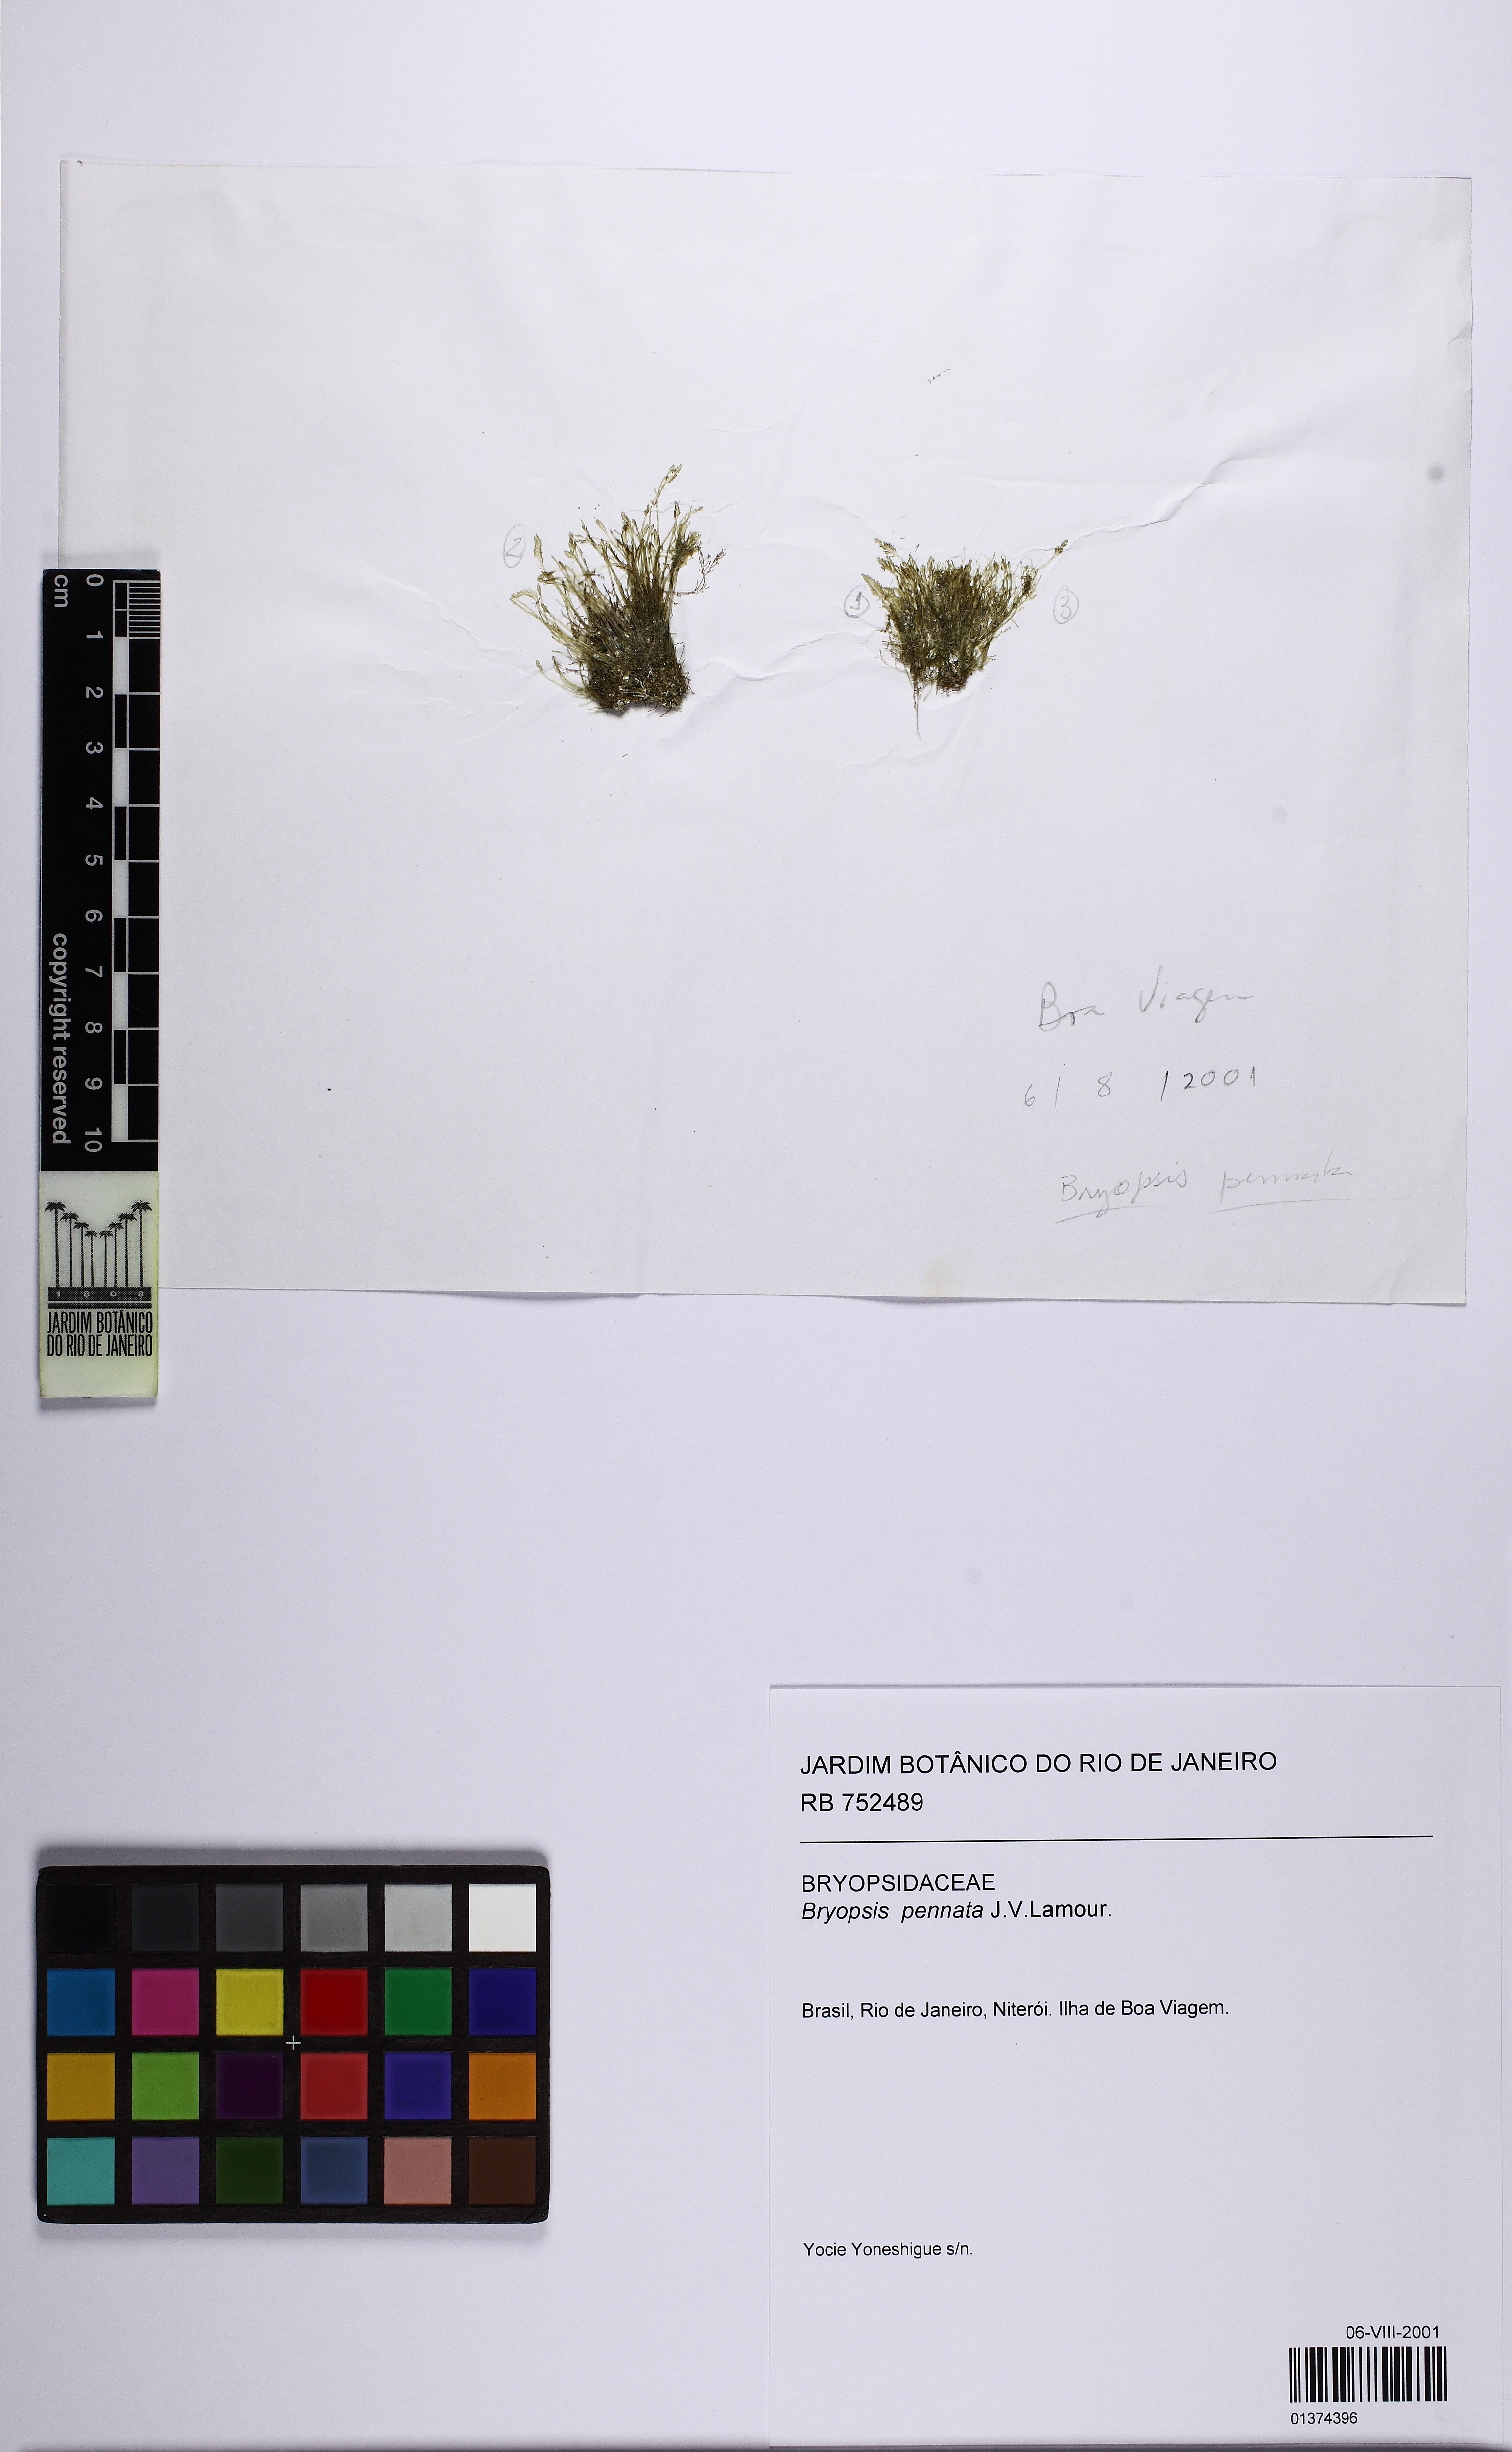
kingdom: Plantae
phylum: Chlorophyta
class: Ulvophyceae
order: Bryopsidales
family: Bryopsidaceae
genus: Bryopsis
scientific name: Bryopsis pennata
